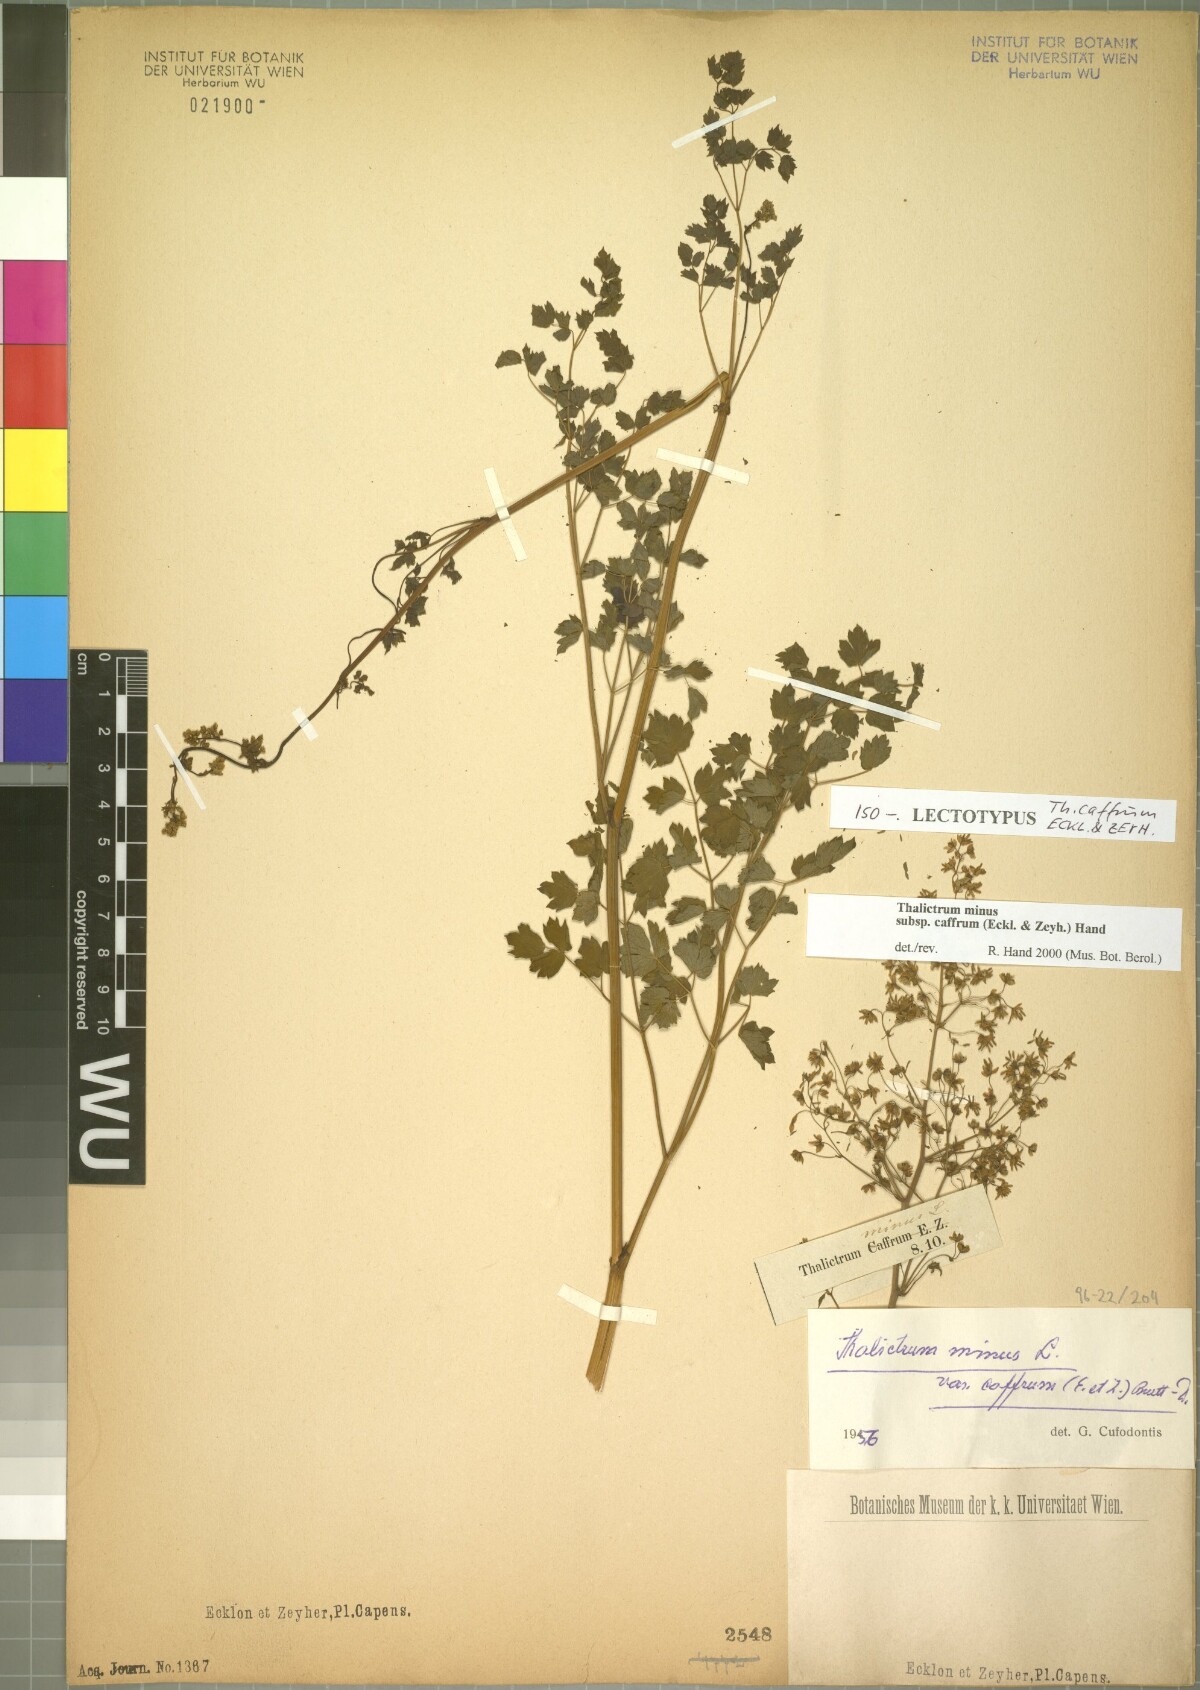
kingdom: Plantae
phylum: Tracheophyta
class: Magnoliopsida
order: Ranunculales
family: Ranunculaceae
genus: Thalictrum
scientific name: Thalictrum minus
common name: Lesser meadow-rue
